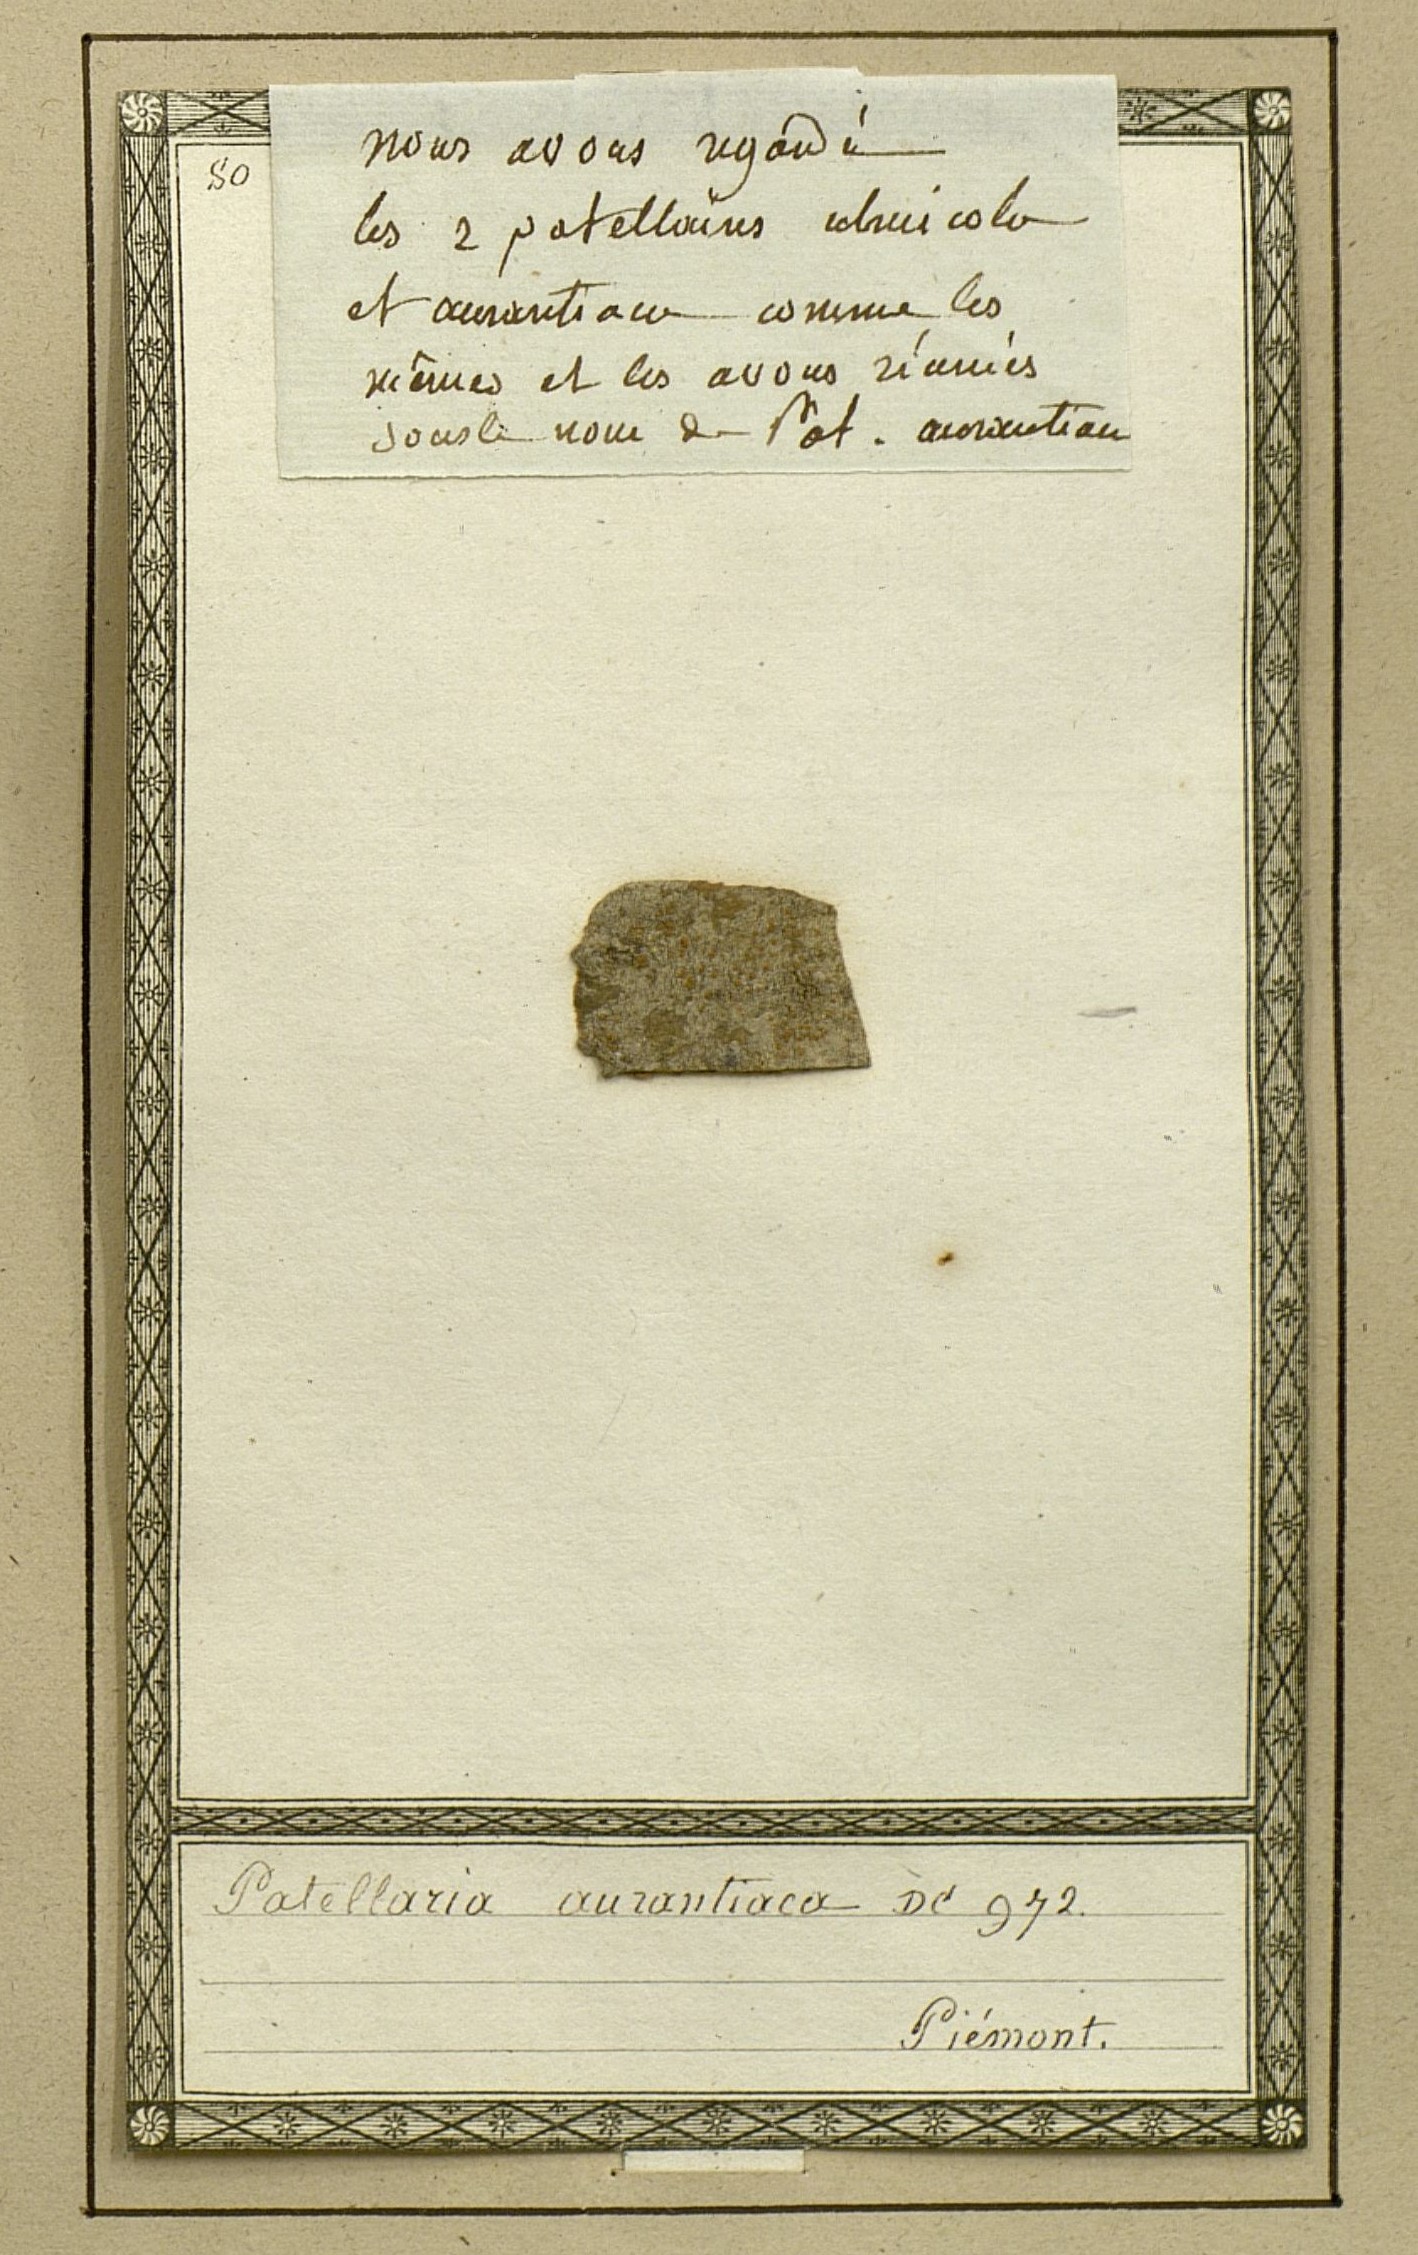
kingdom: Fungi
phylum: Ascomycota
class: Lecanoromycetes
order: Teloschistales
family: Teloschistaceae
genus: Blastenia
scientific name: Blastenia ferruginea
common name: Rusty firedot lichen
